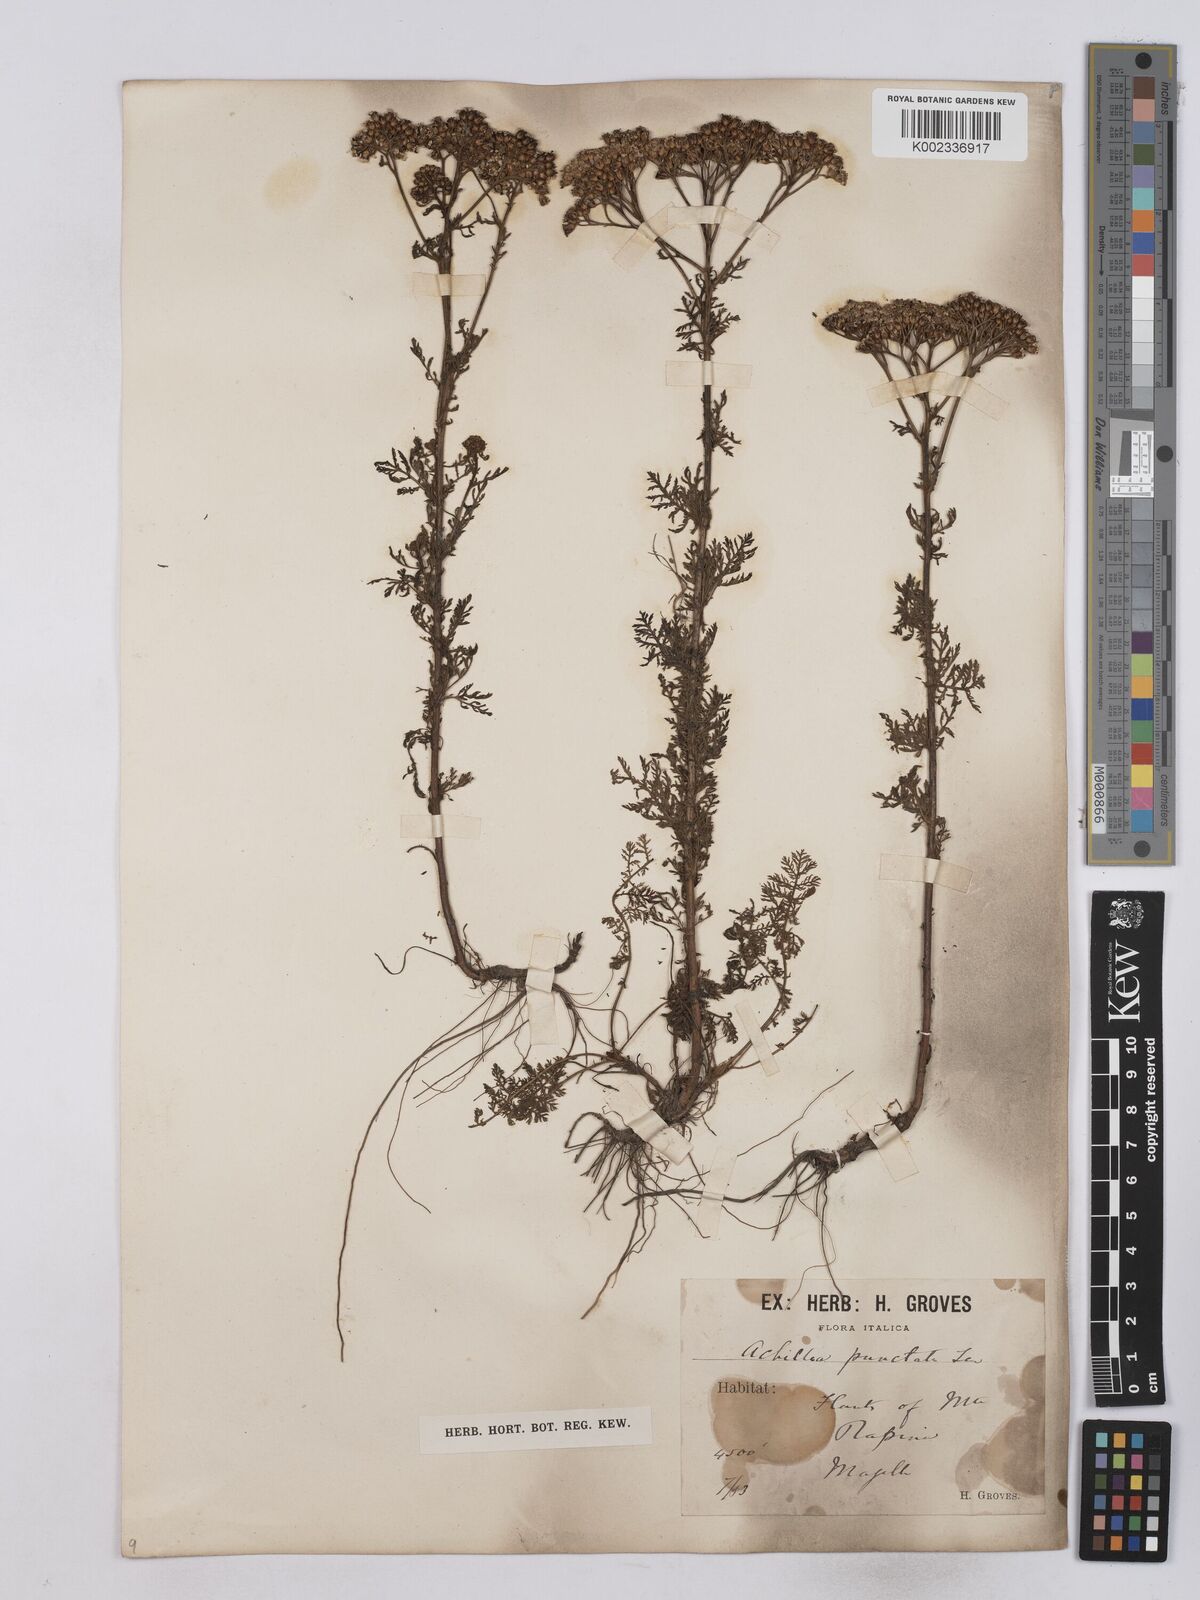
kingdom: Plantae
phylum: Tracheophyta
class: Magnoliopsida
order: Asterales
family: Asteraceae
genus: Achillea
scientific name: Achillea odorata
